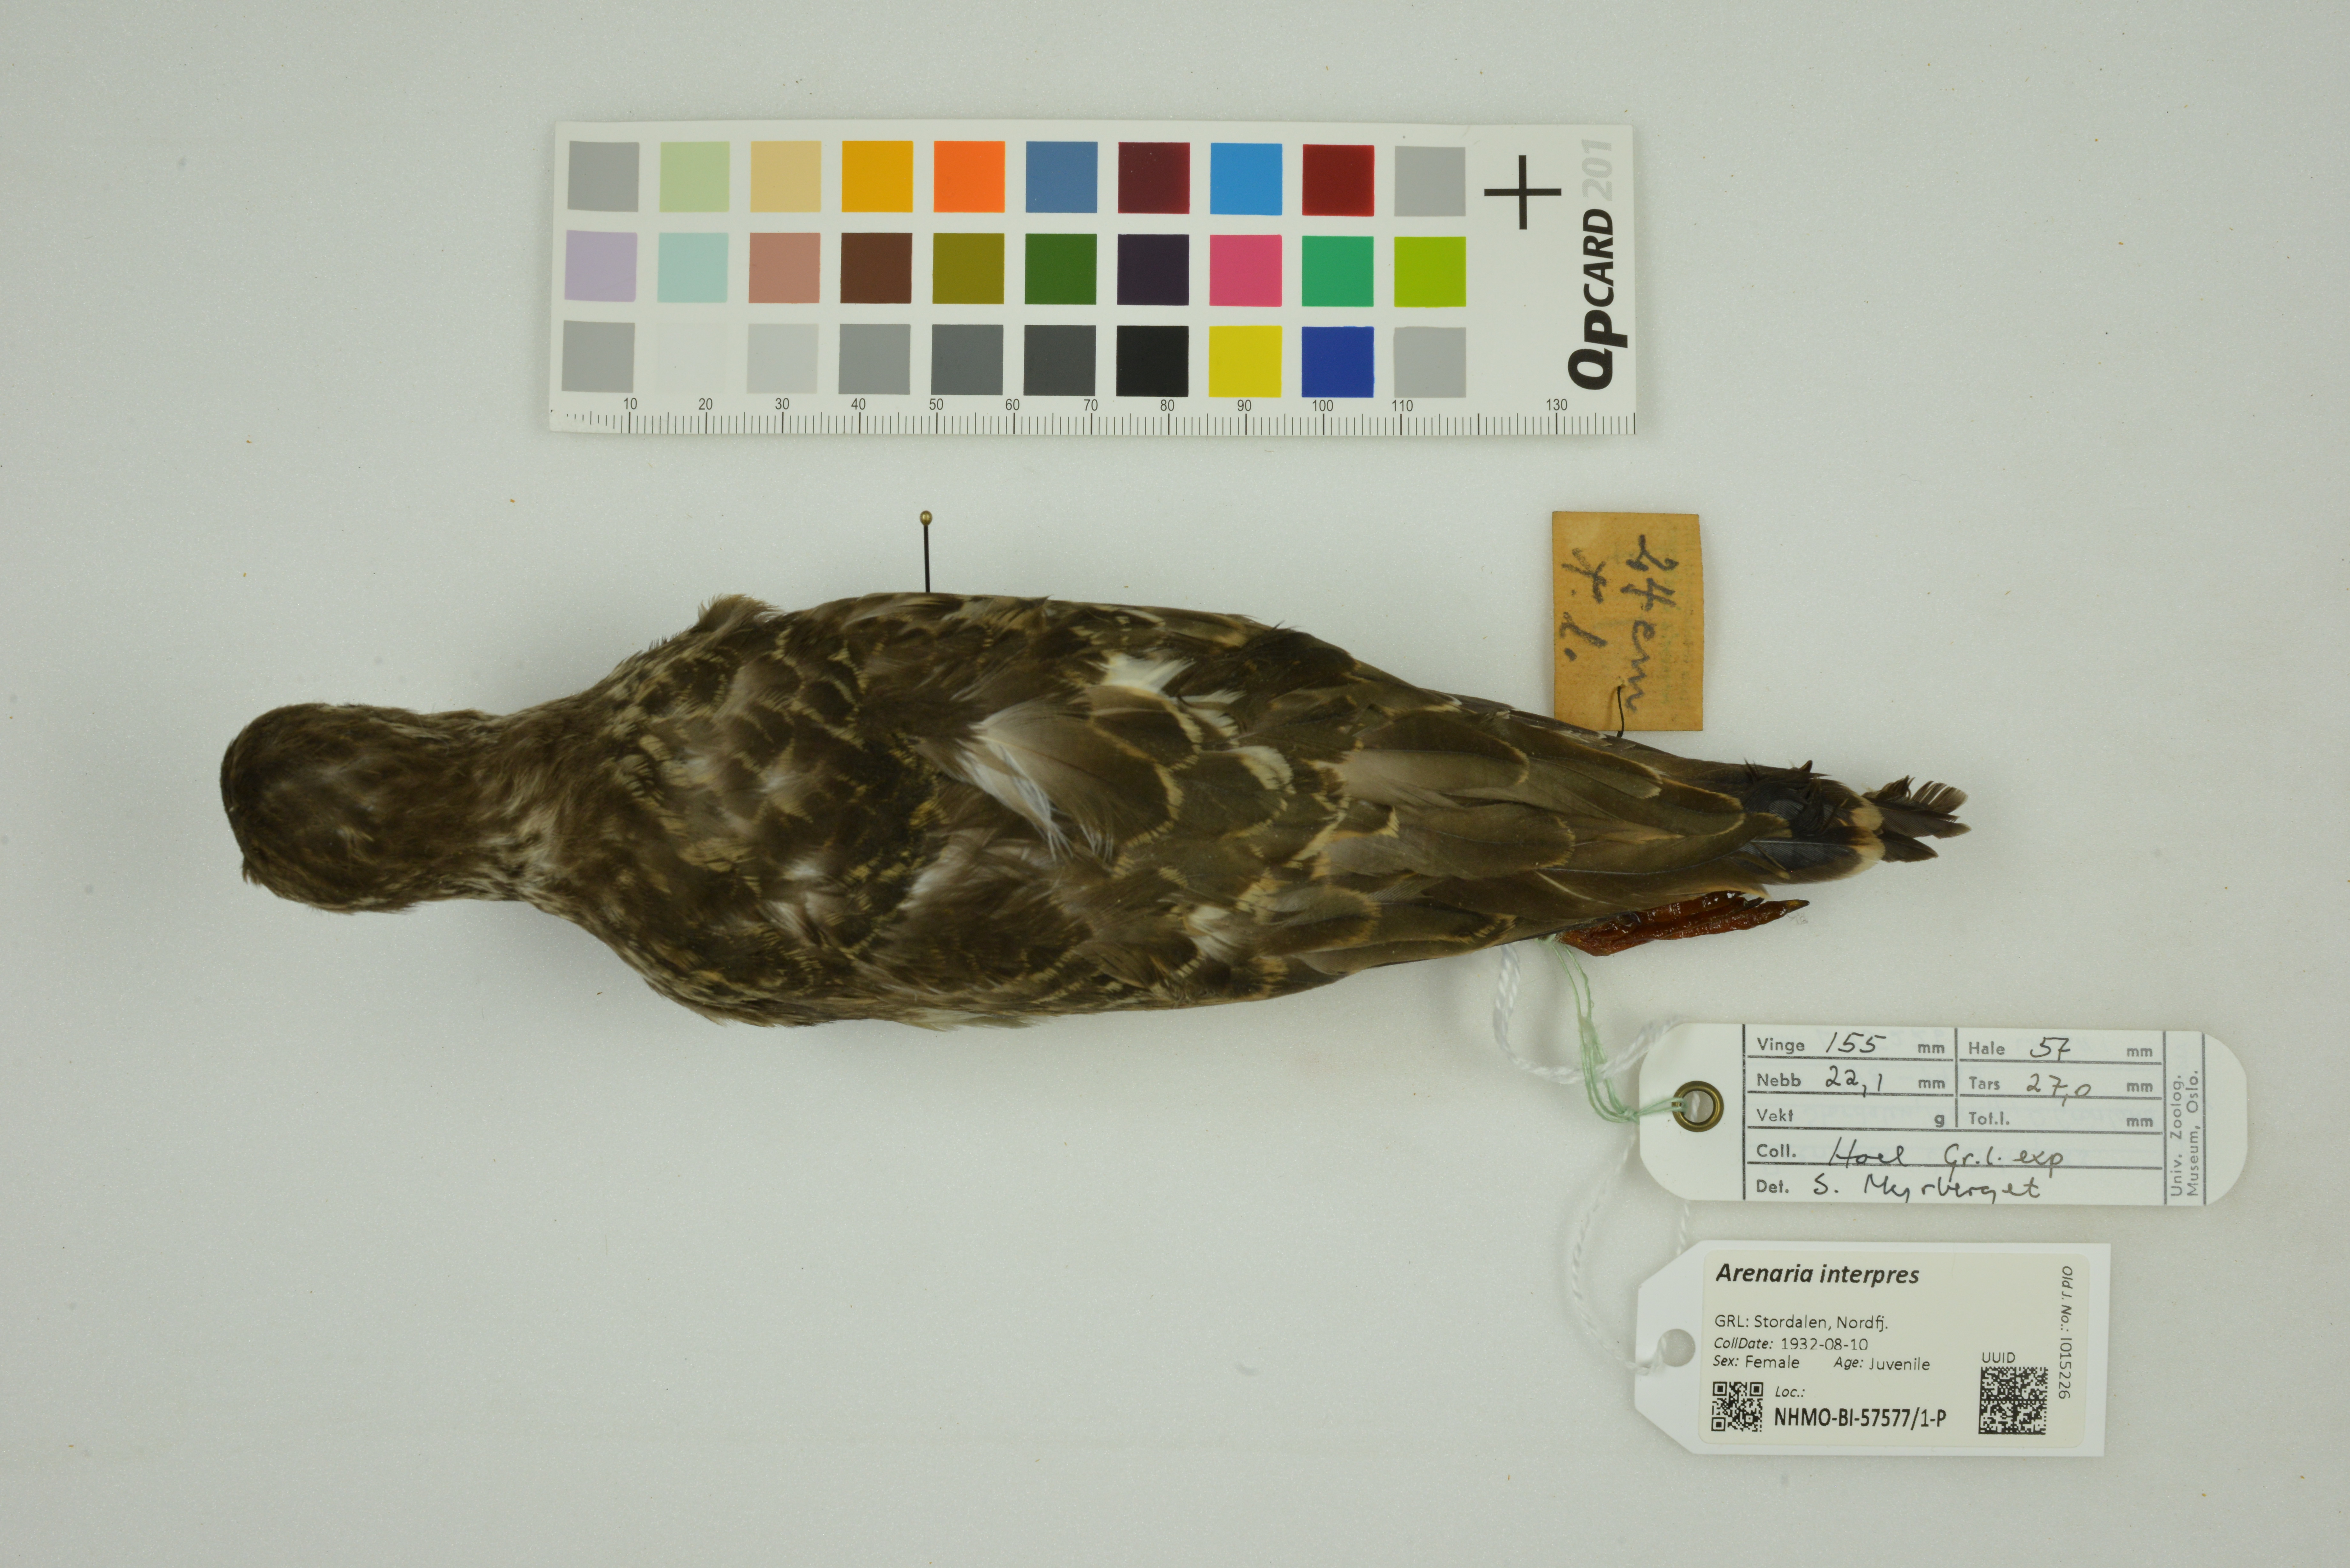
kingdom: Animalia
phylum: Chordata
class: Aves
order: Charadriiformes
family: Scolopacidae
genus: Arenaria
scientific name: Arenaria interpres
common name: Ruddy turnstone
